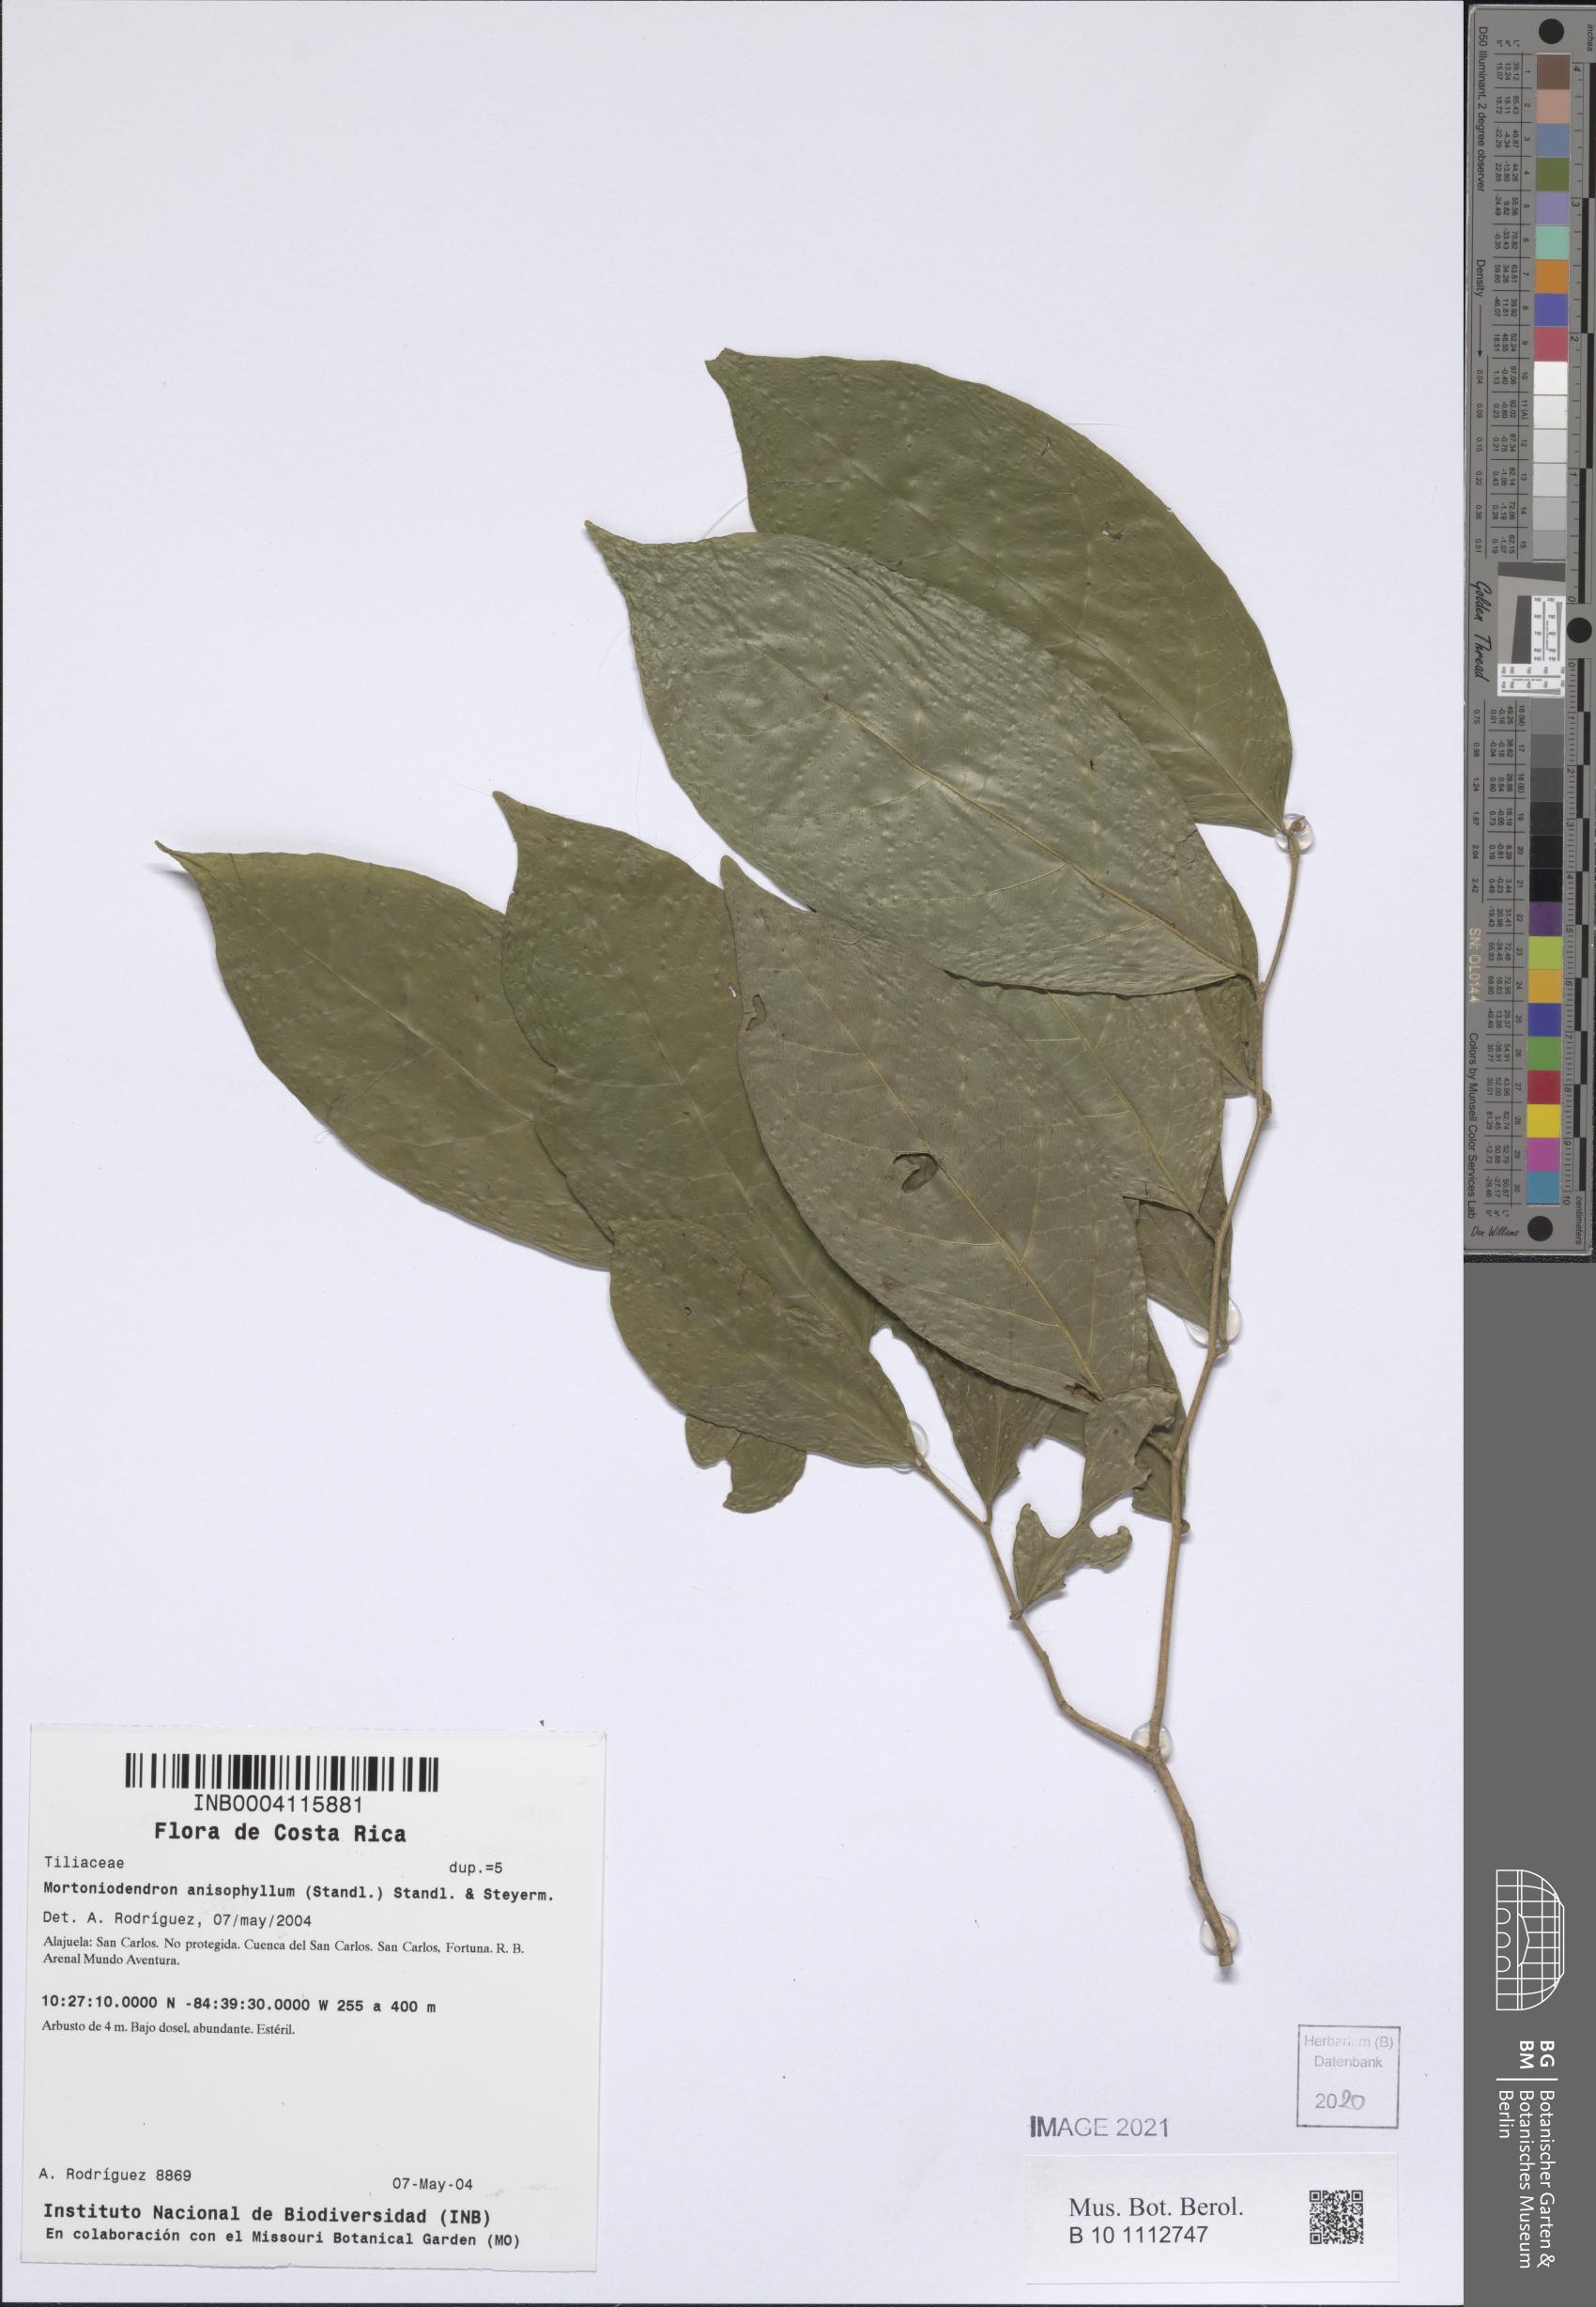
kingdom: Plantae
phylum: Tracheophyta
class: Magnoliopsida
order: Malvales
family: Malvaceae
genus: Mortoniodendron
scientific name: Mortoniodendron anisophyllum
